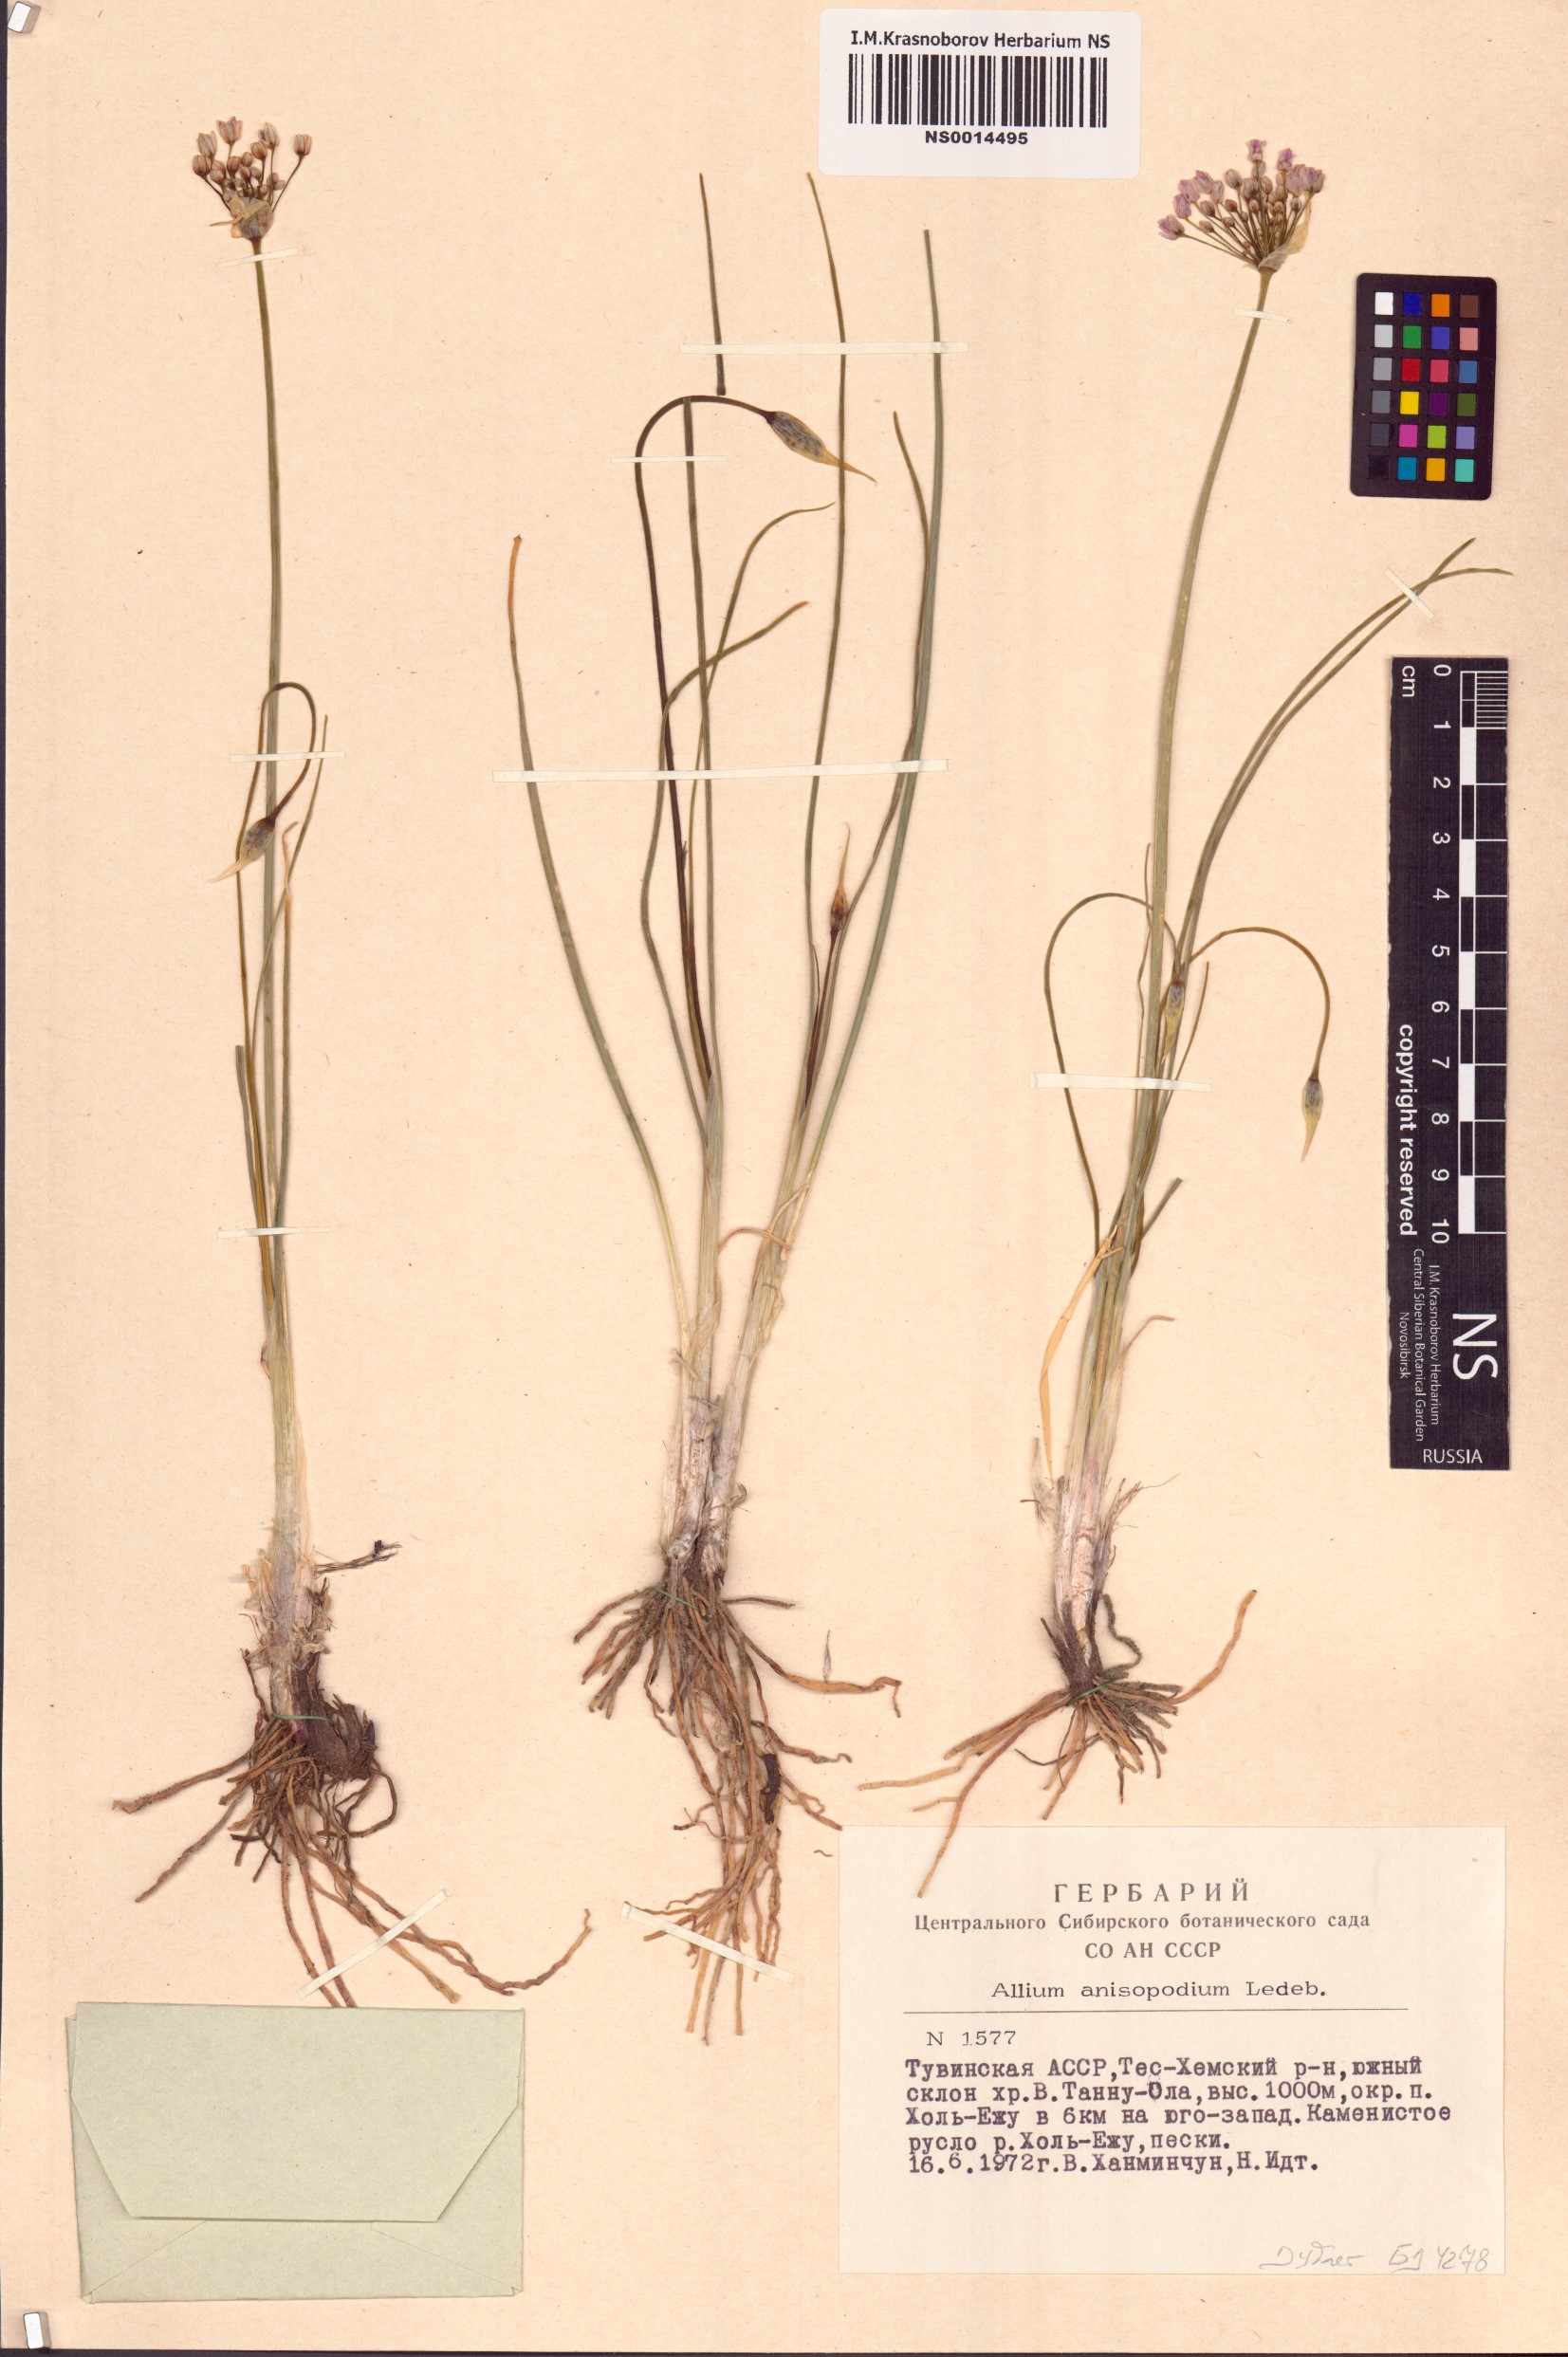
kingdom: Plantae
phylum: Tracheophyta
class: Liliopsida
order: Asparagales
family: Amaryllidaceae
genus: Allium
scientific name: Allium anisopodium
